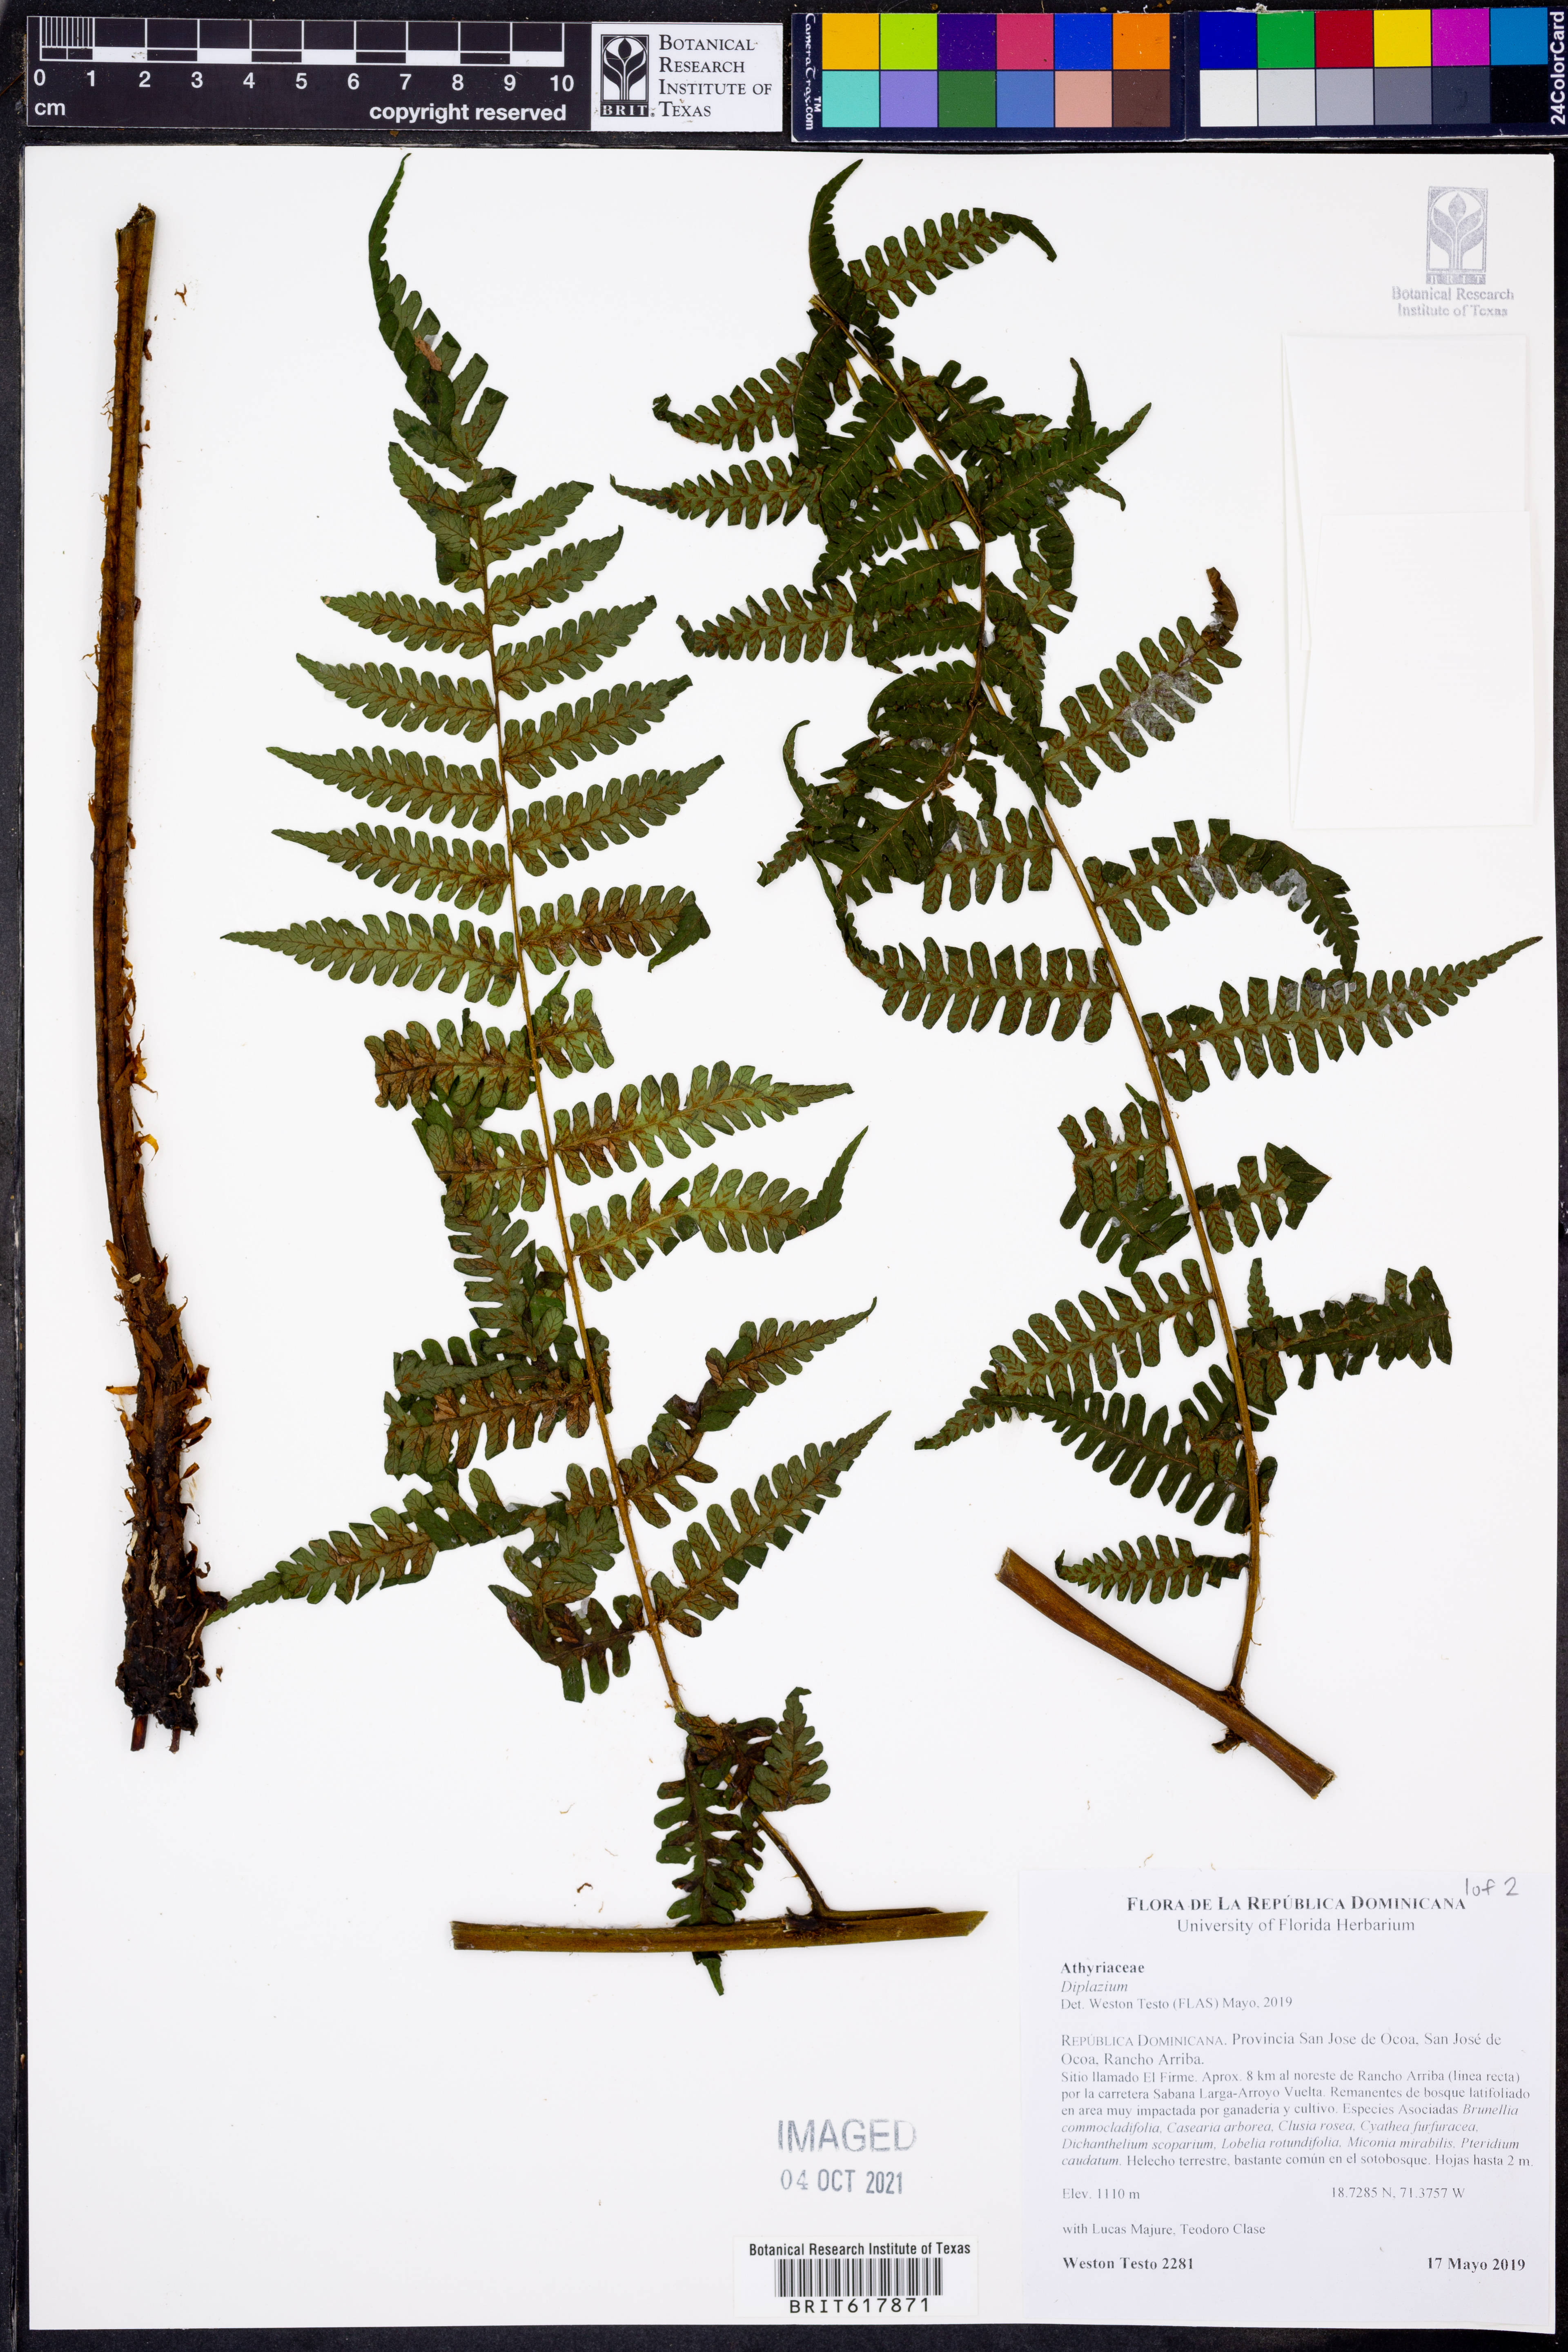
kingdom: Plantae
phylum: Tracheophyta
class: Polypodiopsida
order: Polypodiales
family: Athyriaceae
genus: Diplazium
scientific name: Diplazium
